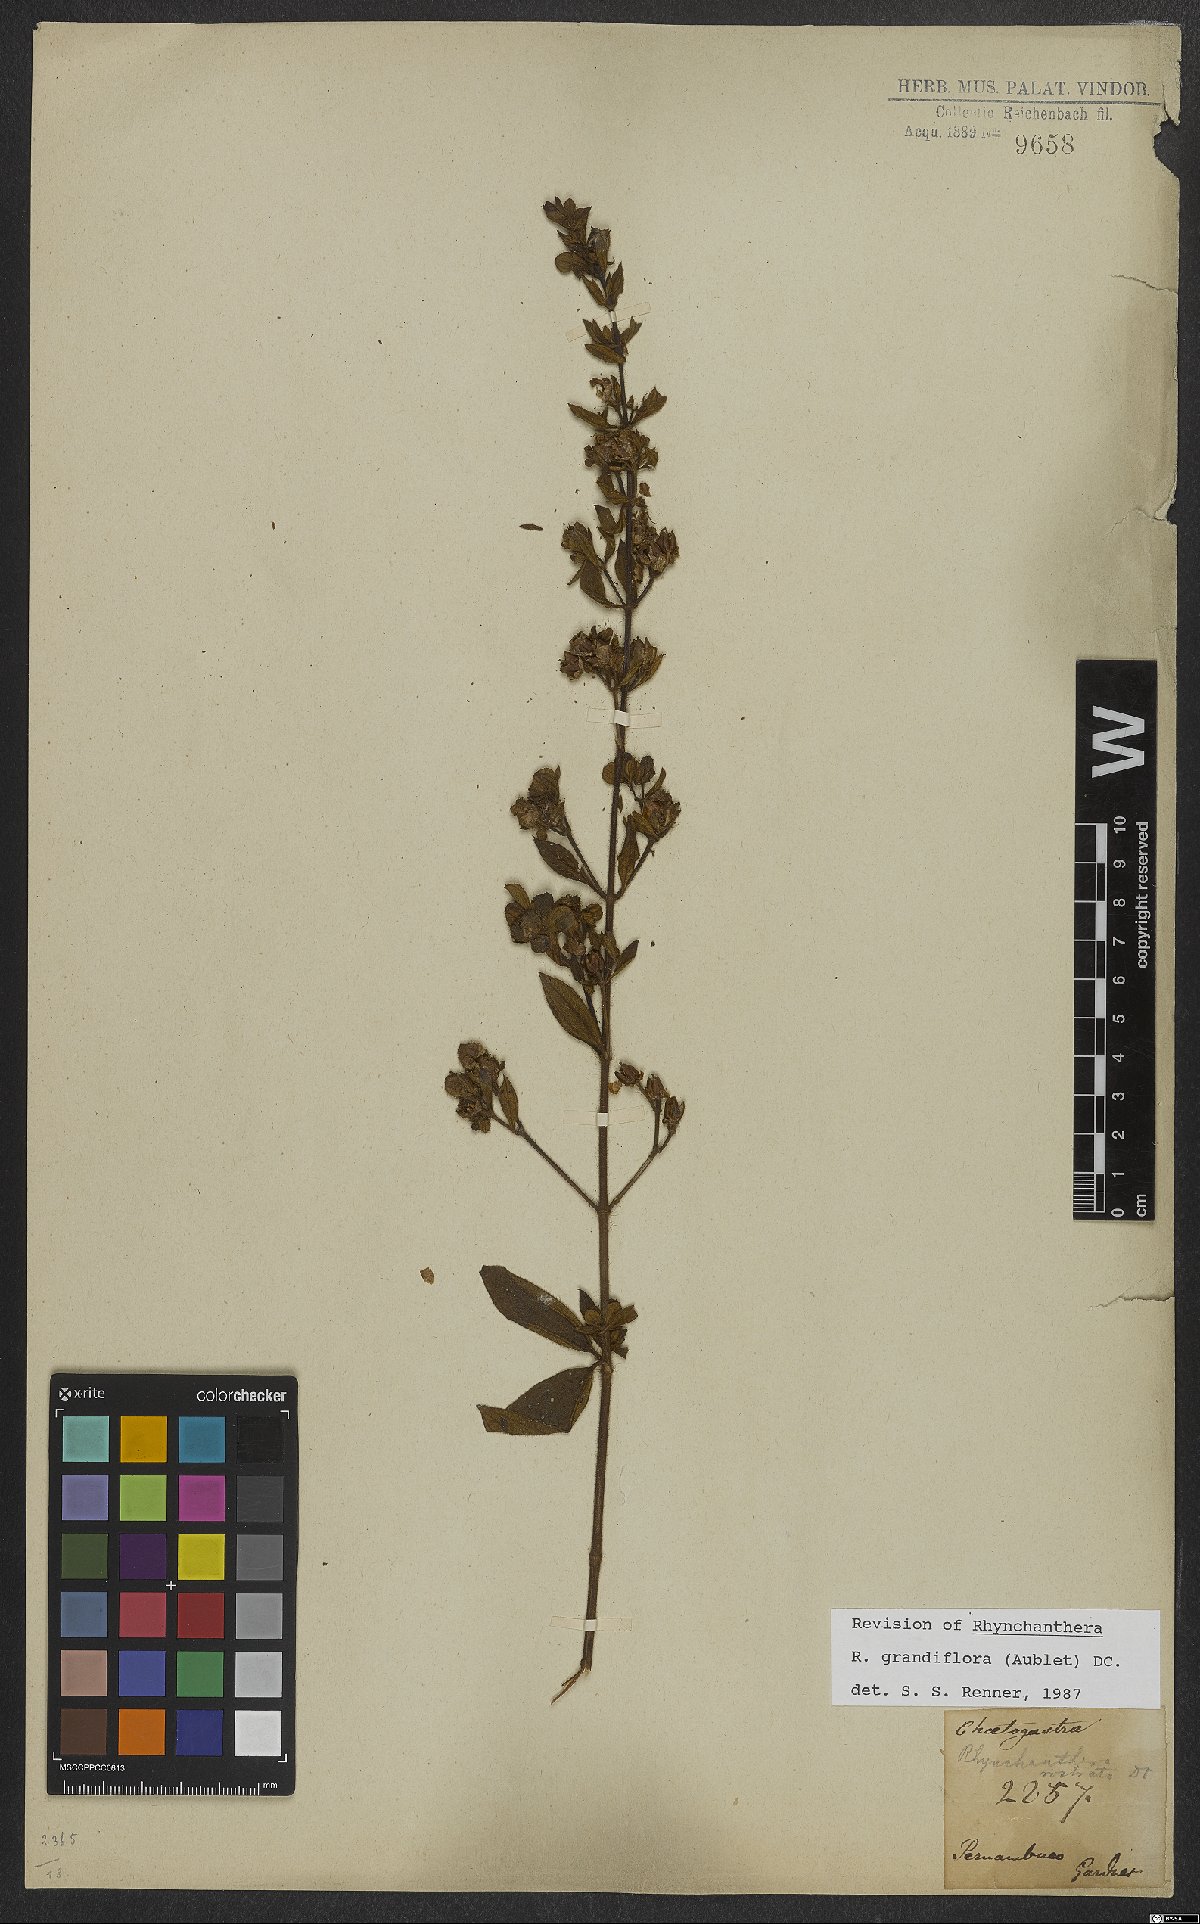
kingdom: Plantae
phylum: Tracheophyta
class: Magnoliopsida
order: Myrtales
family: Melastomataceae
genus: Rhynchanthera
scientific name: Rhynchanthera grandiflora
